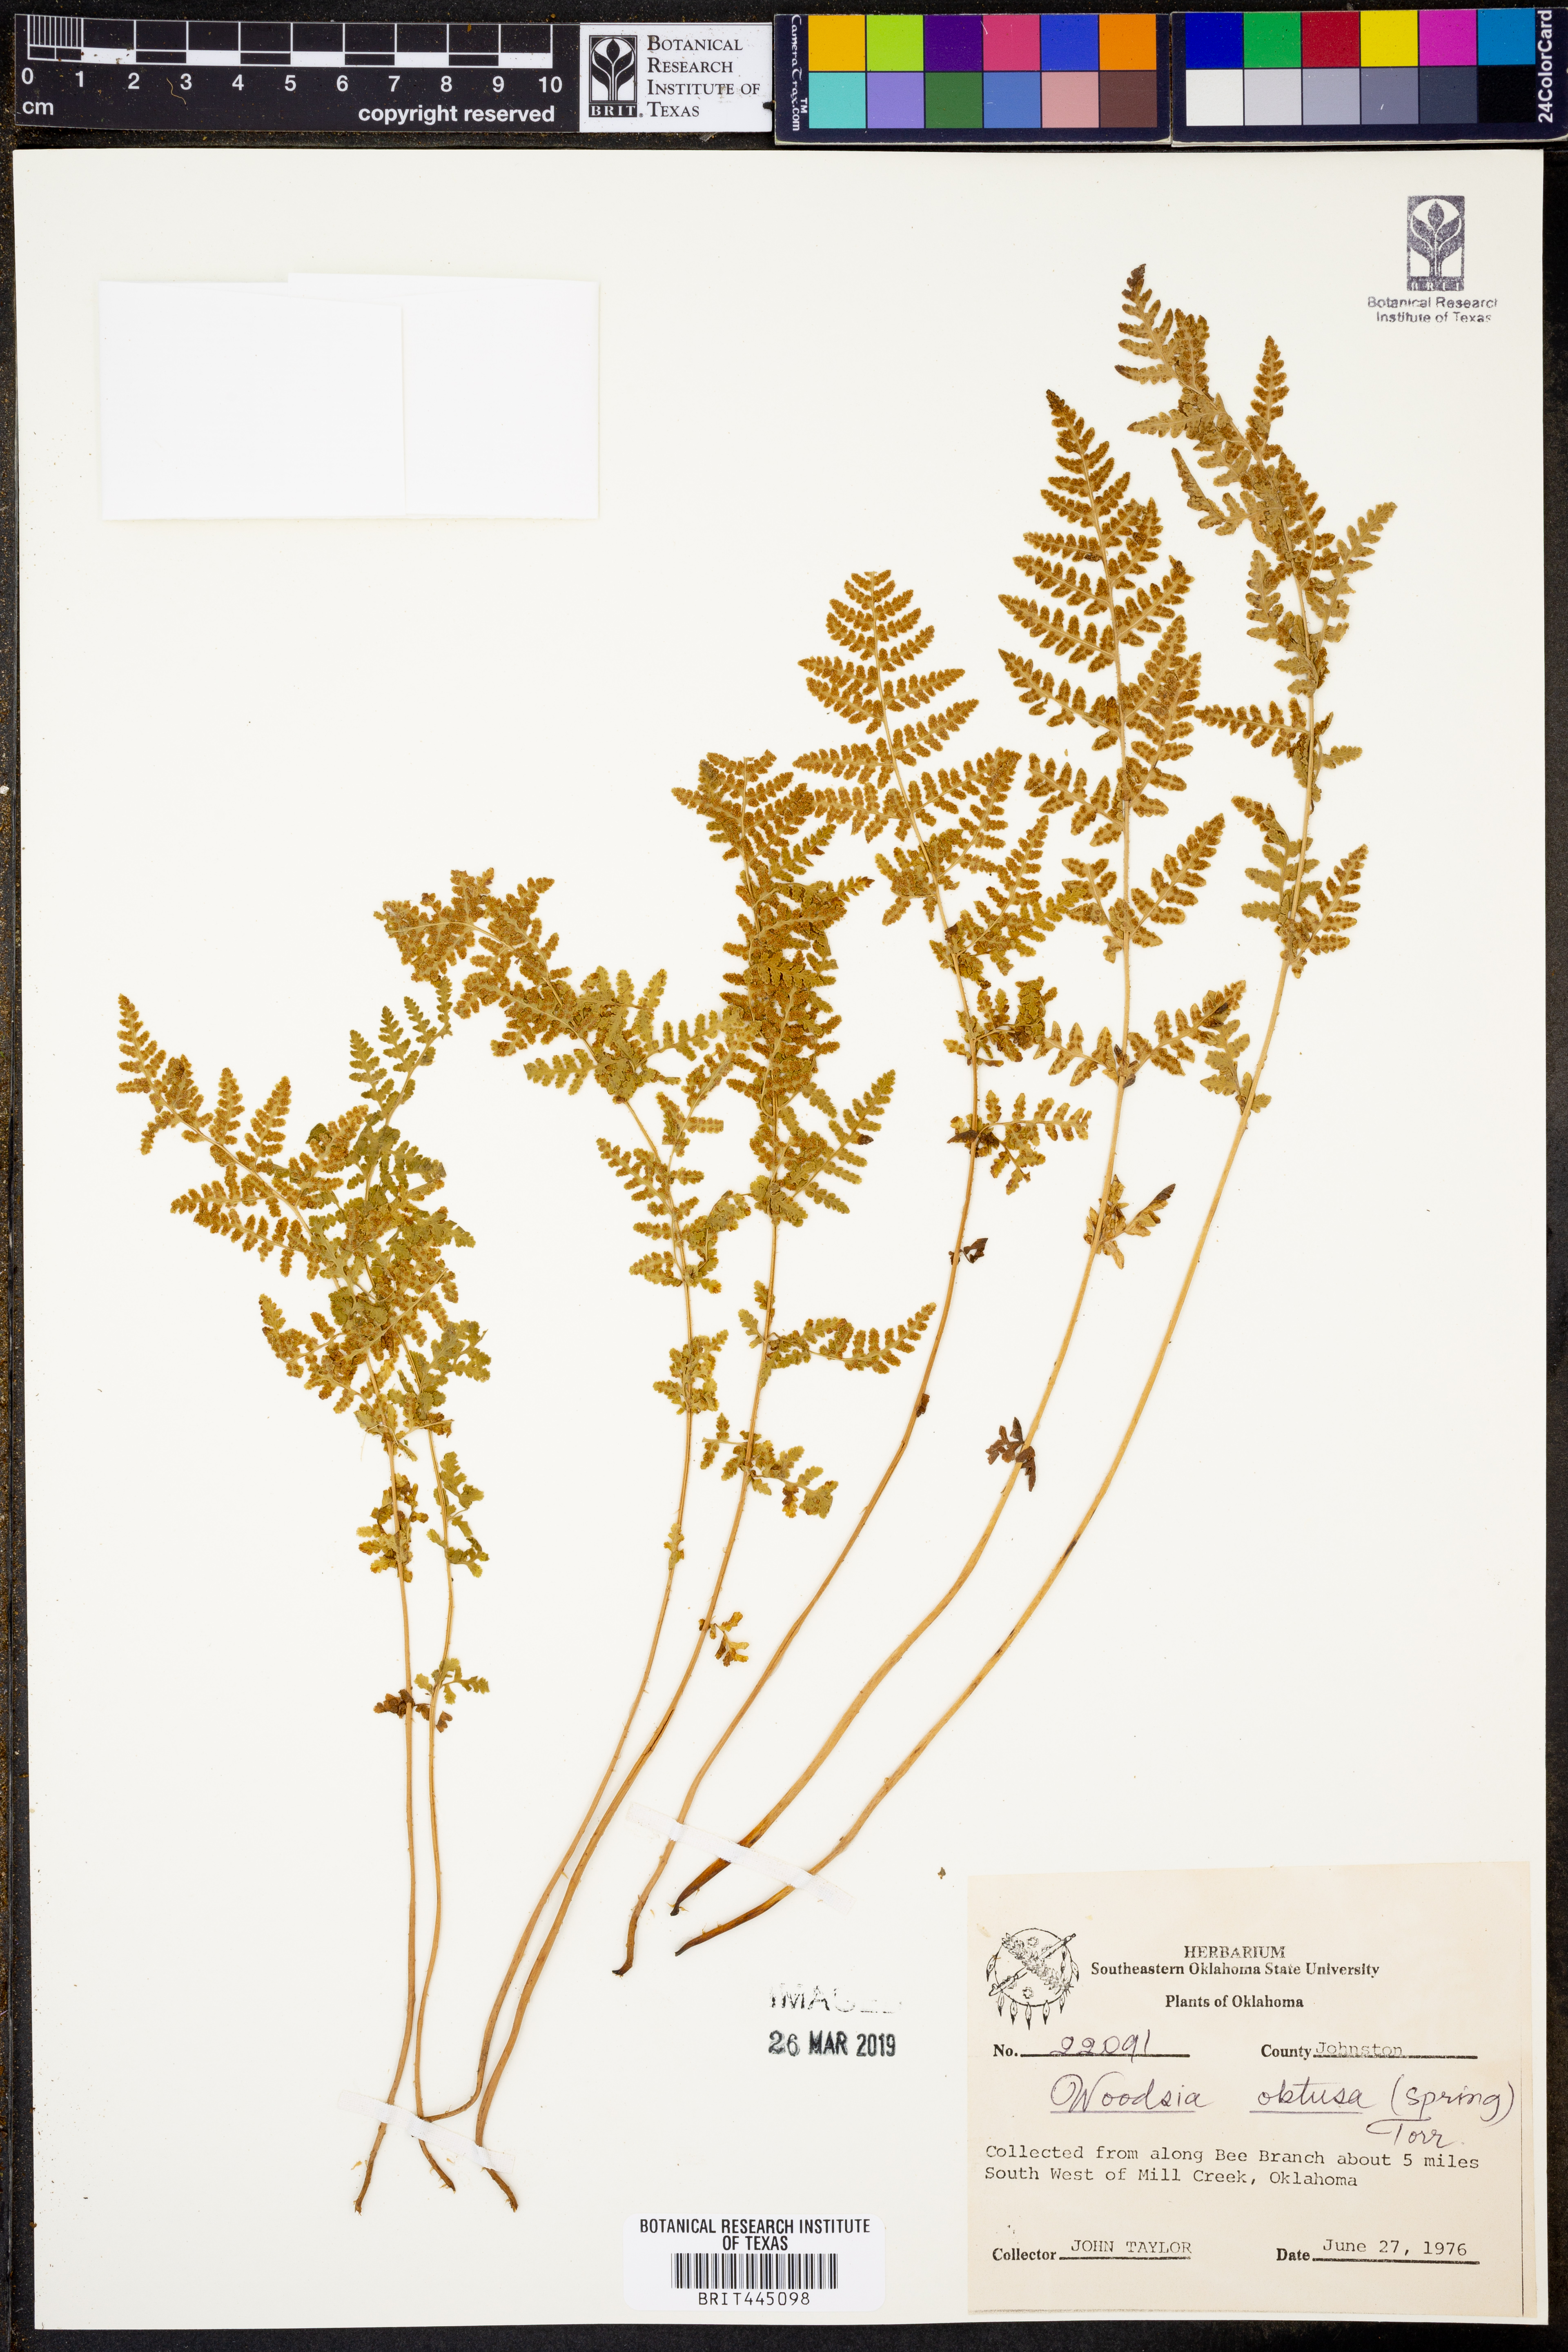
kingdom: Plantae
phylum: Tracheophyta
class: Polypodiopsida
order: Polypodiales
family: Woodsiaceae
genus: Physematium
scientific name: Physematium obtusum
